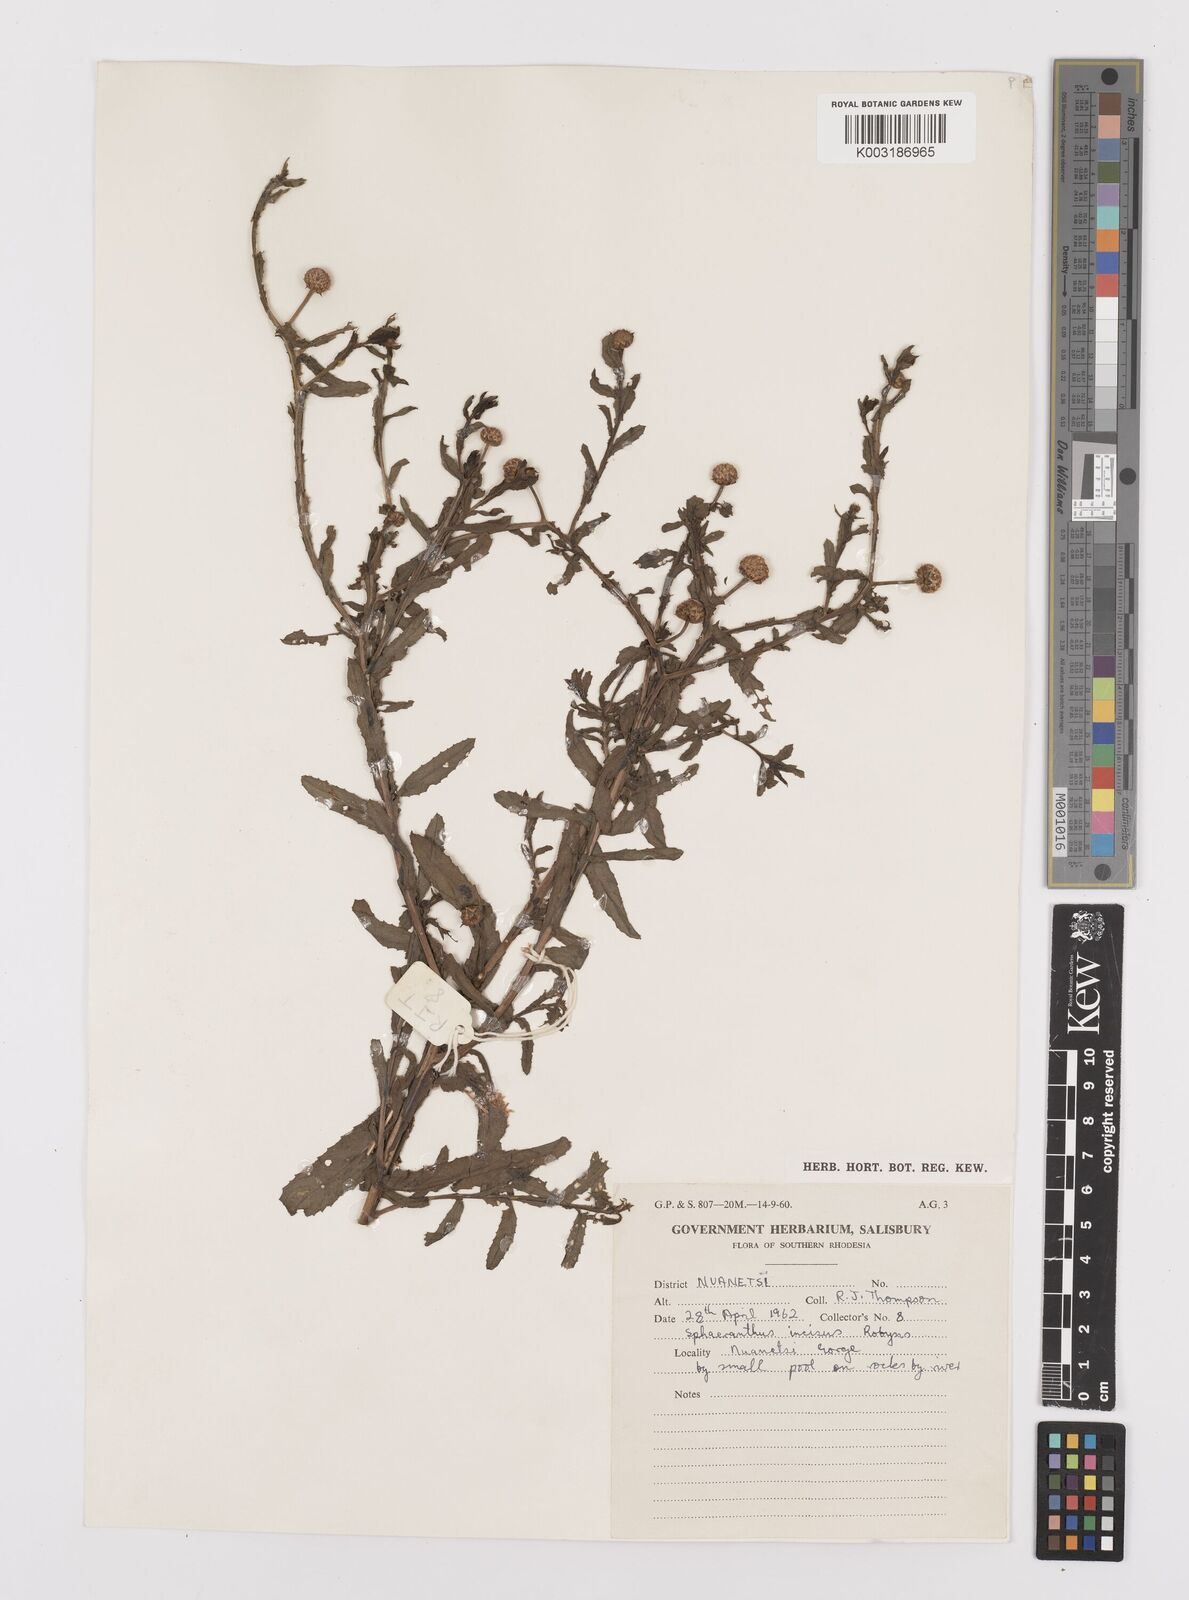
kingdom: Plantae
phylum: Tracheophyta
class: Magnoliopsida
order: Asterales
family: Asteraceae
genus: Sphaeranthus
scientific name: Sphaeranthus peduncularis
